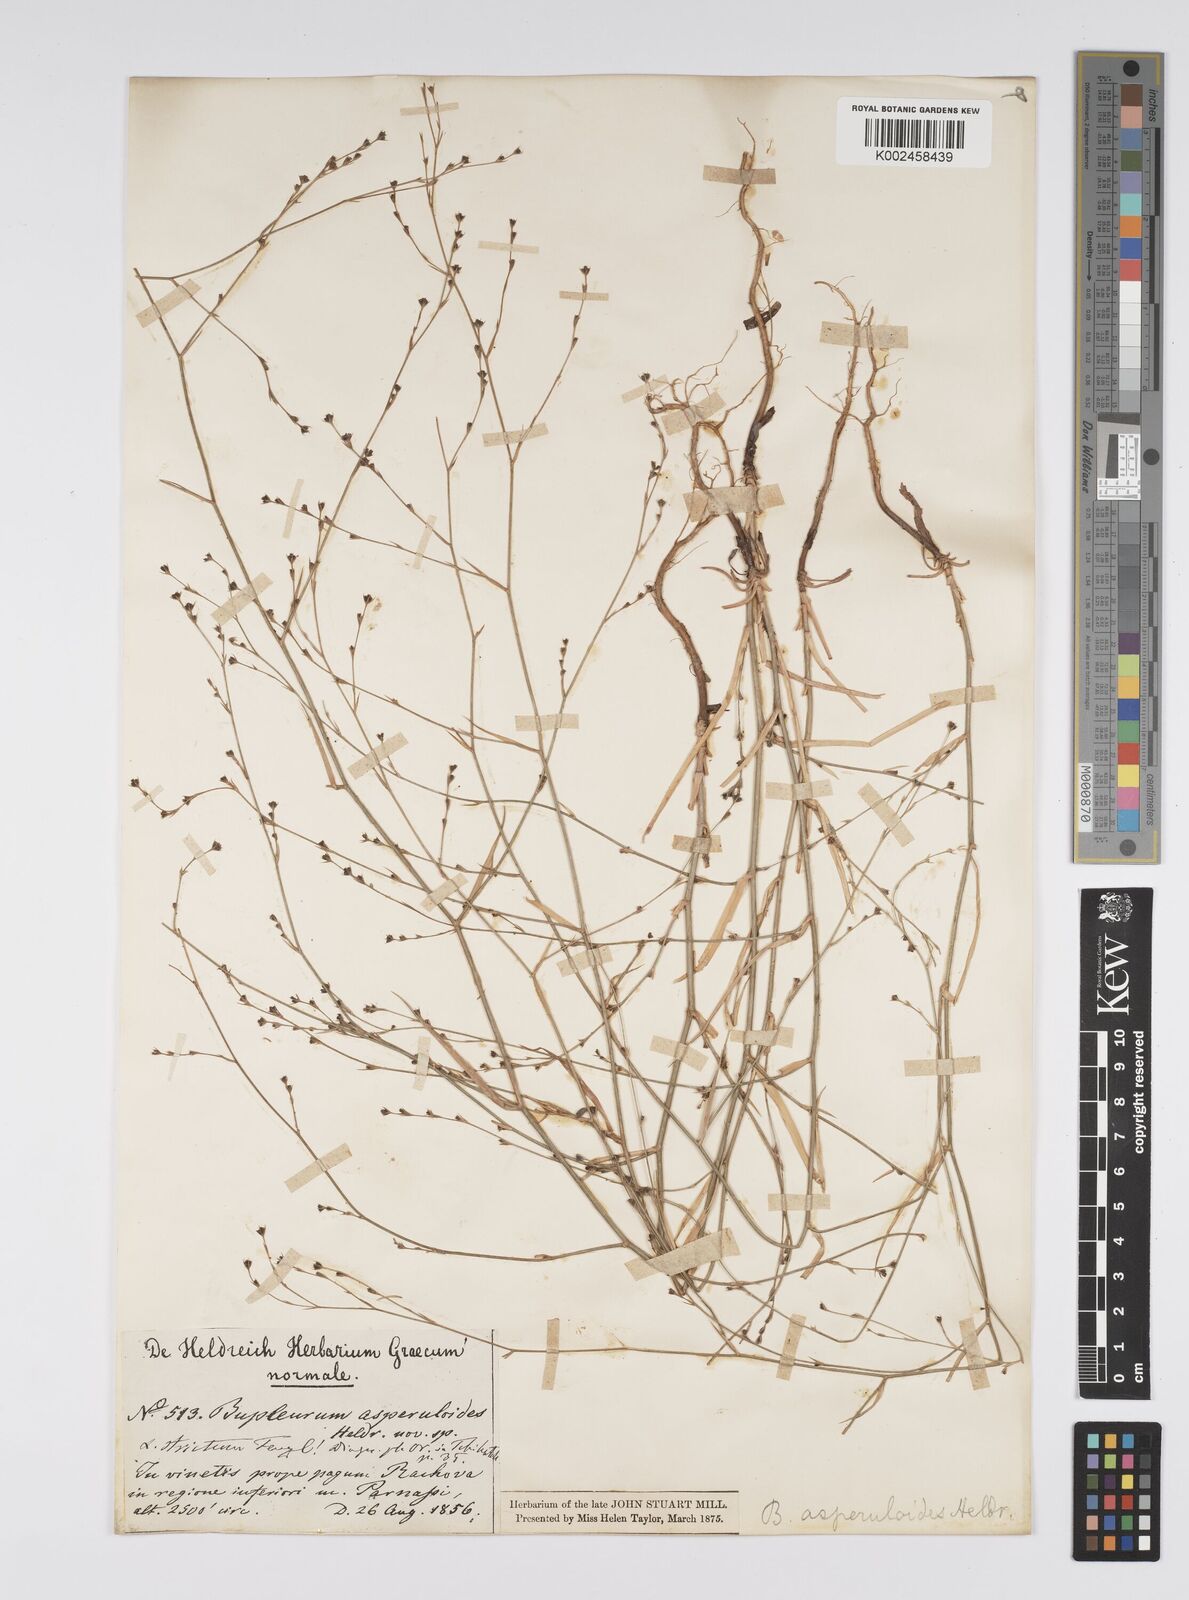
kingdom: Plantae
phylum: Tracheophyta
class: Magnoliopsida
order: Apiales
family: Apiaceae
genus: Bupleurum
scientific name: Bupleurum asperuloides
